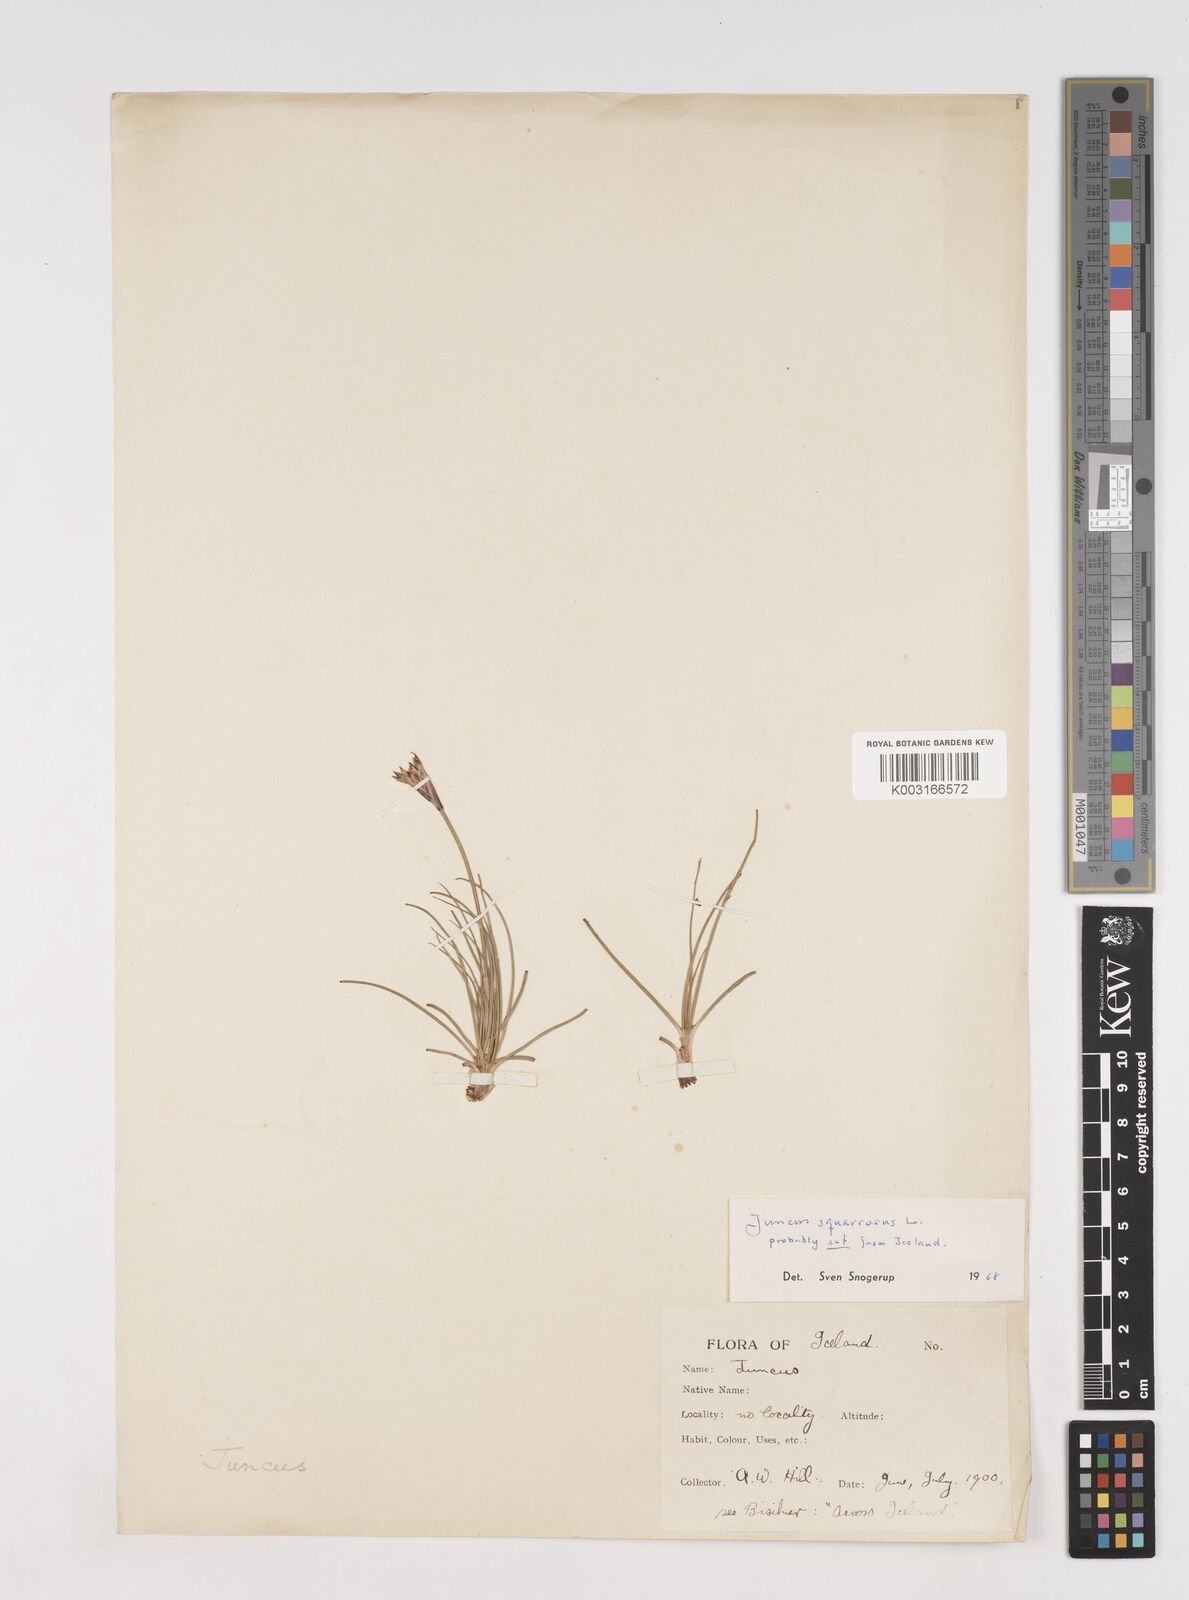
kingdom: Plantae
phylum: Tracheophyta
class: Liliopsida
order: Poales
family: Juncaceae
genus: Juncus
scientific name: Juncus squarrosus
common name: Heath rush
